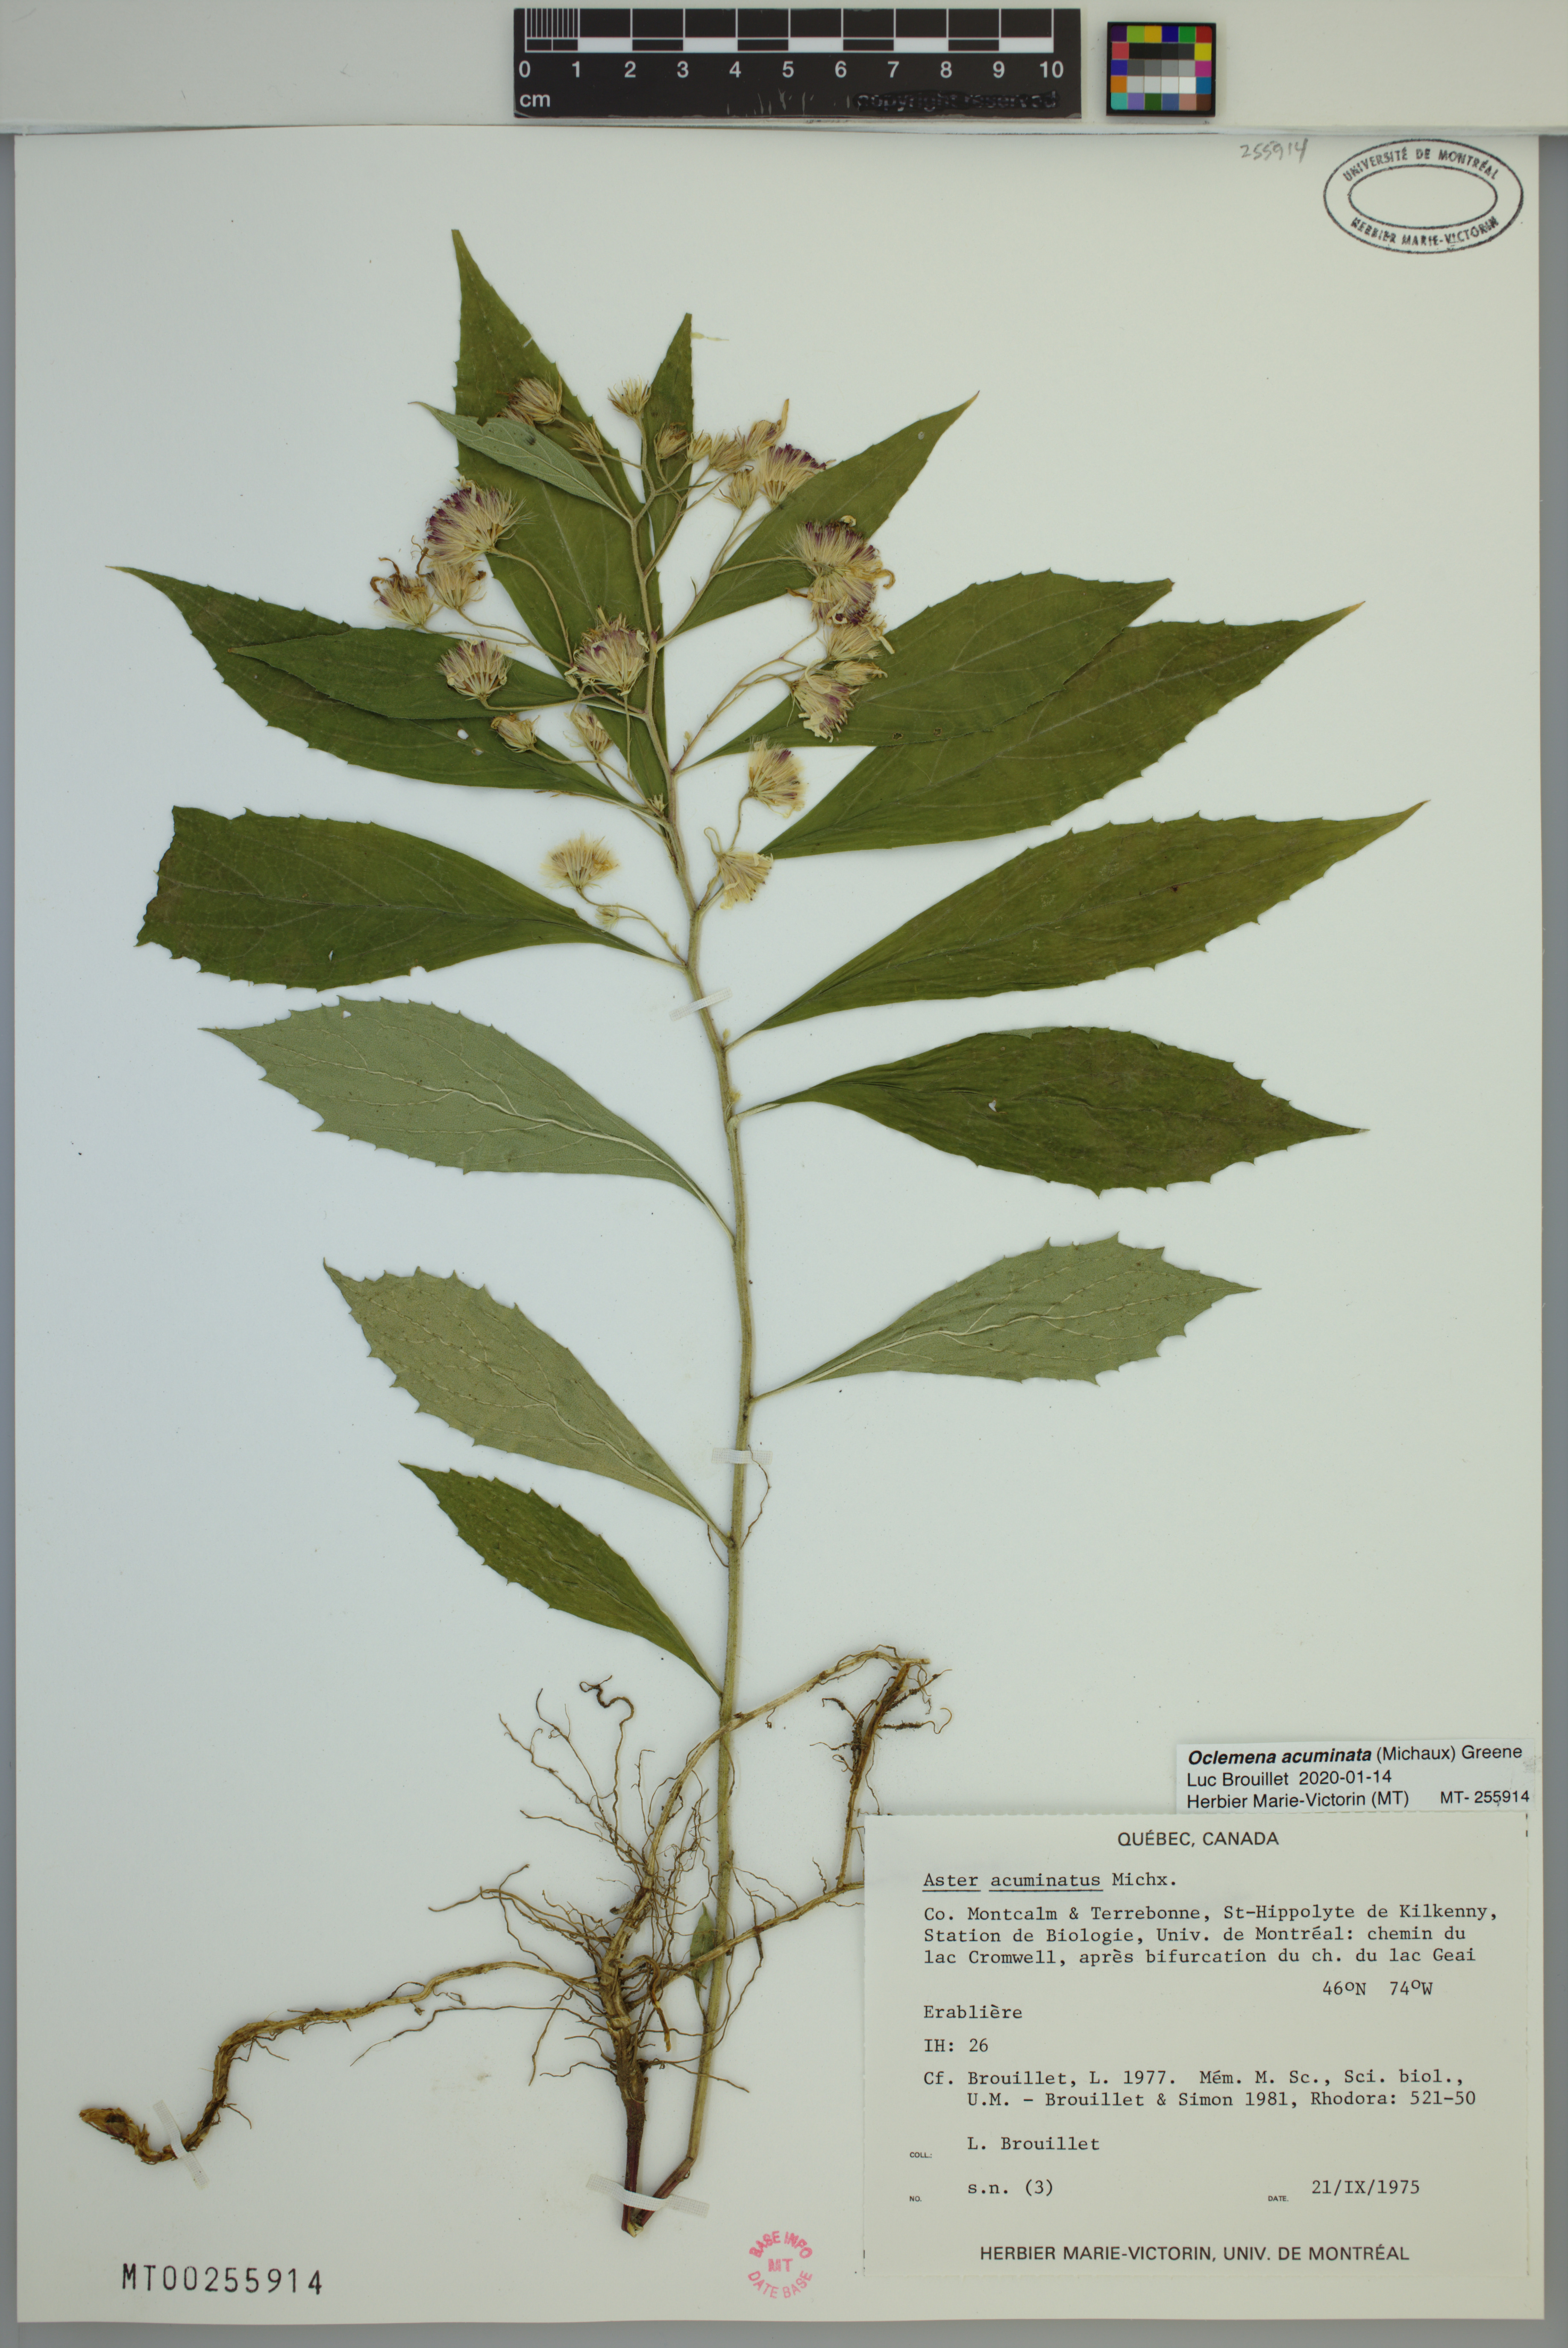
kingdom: Plantae
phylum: Tracheophyta
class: Magnoliopsida
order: Asterales
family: Asteraceae
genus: Oclemena
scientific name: Oclemena acuminata
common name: Mountain aster
